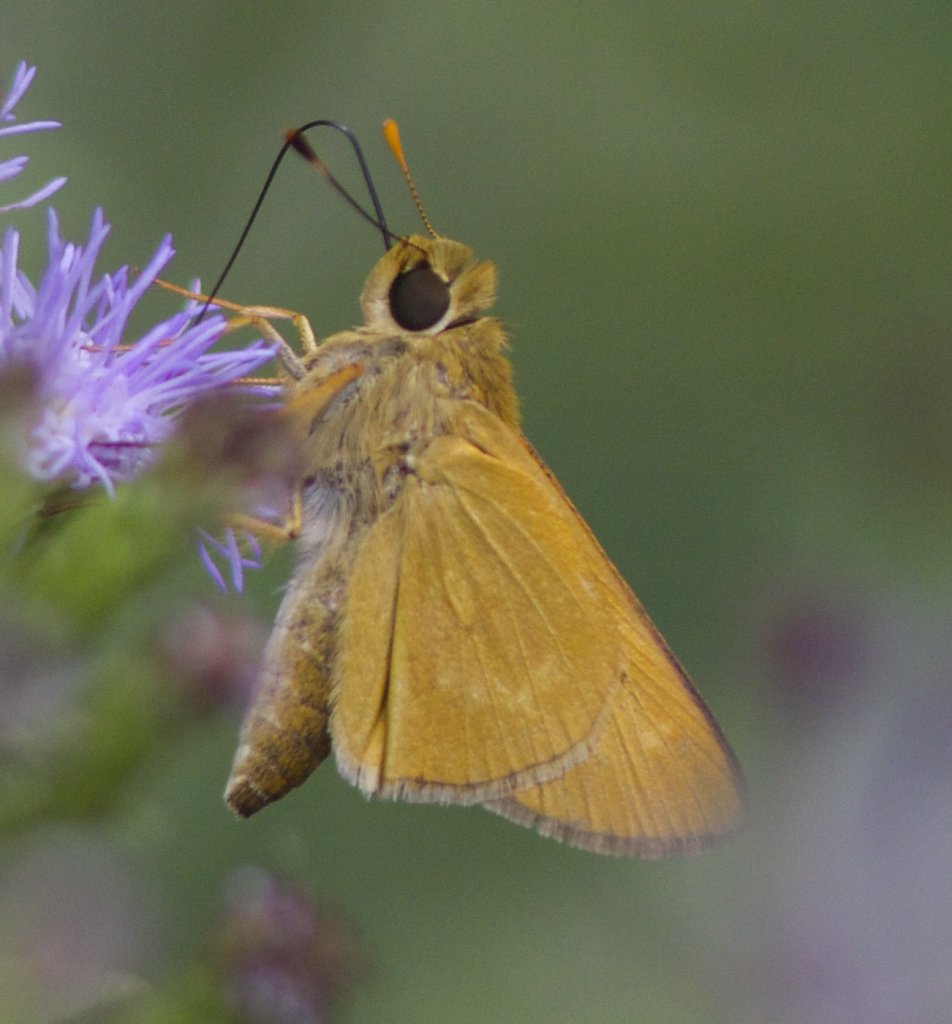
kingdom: Animalia
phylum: Arthropoda
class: Insecta
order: Lepidoptera
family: Hesperiidae
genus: Mellana
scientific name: Mellana eulogius
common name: Common Mellana
